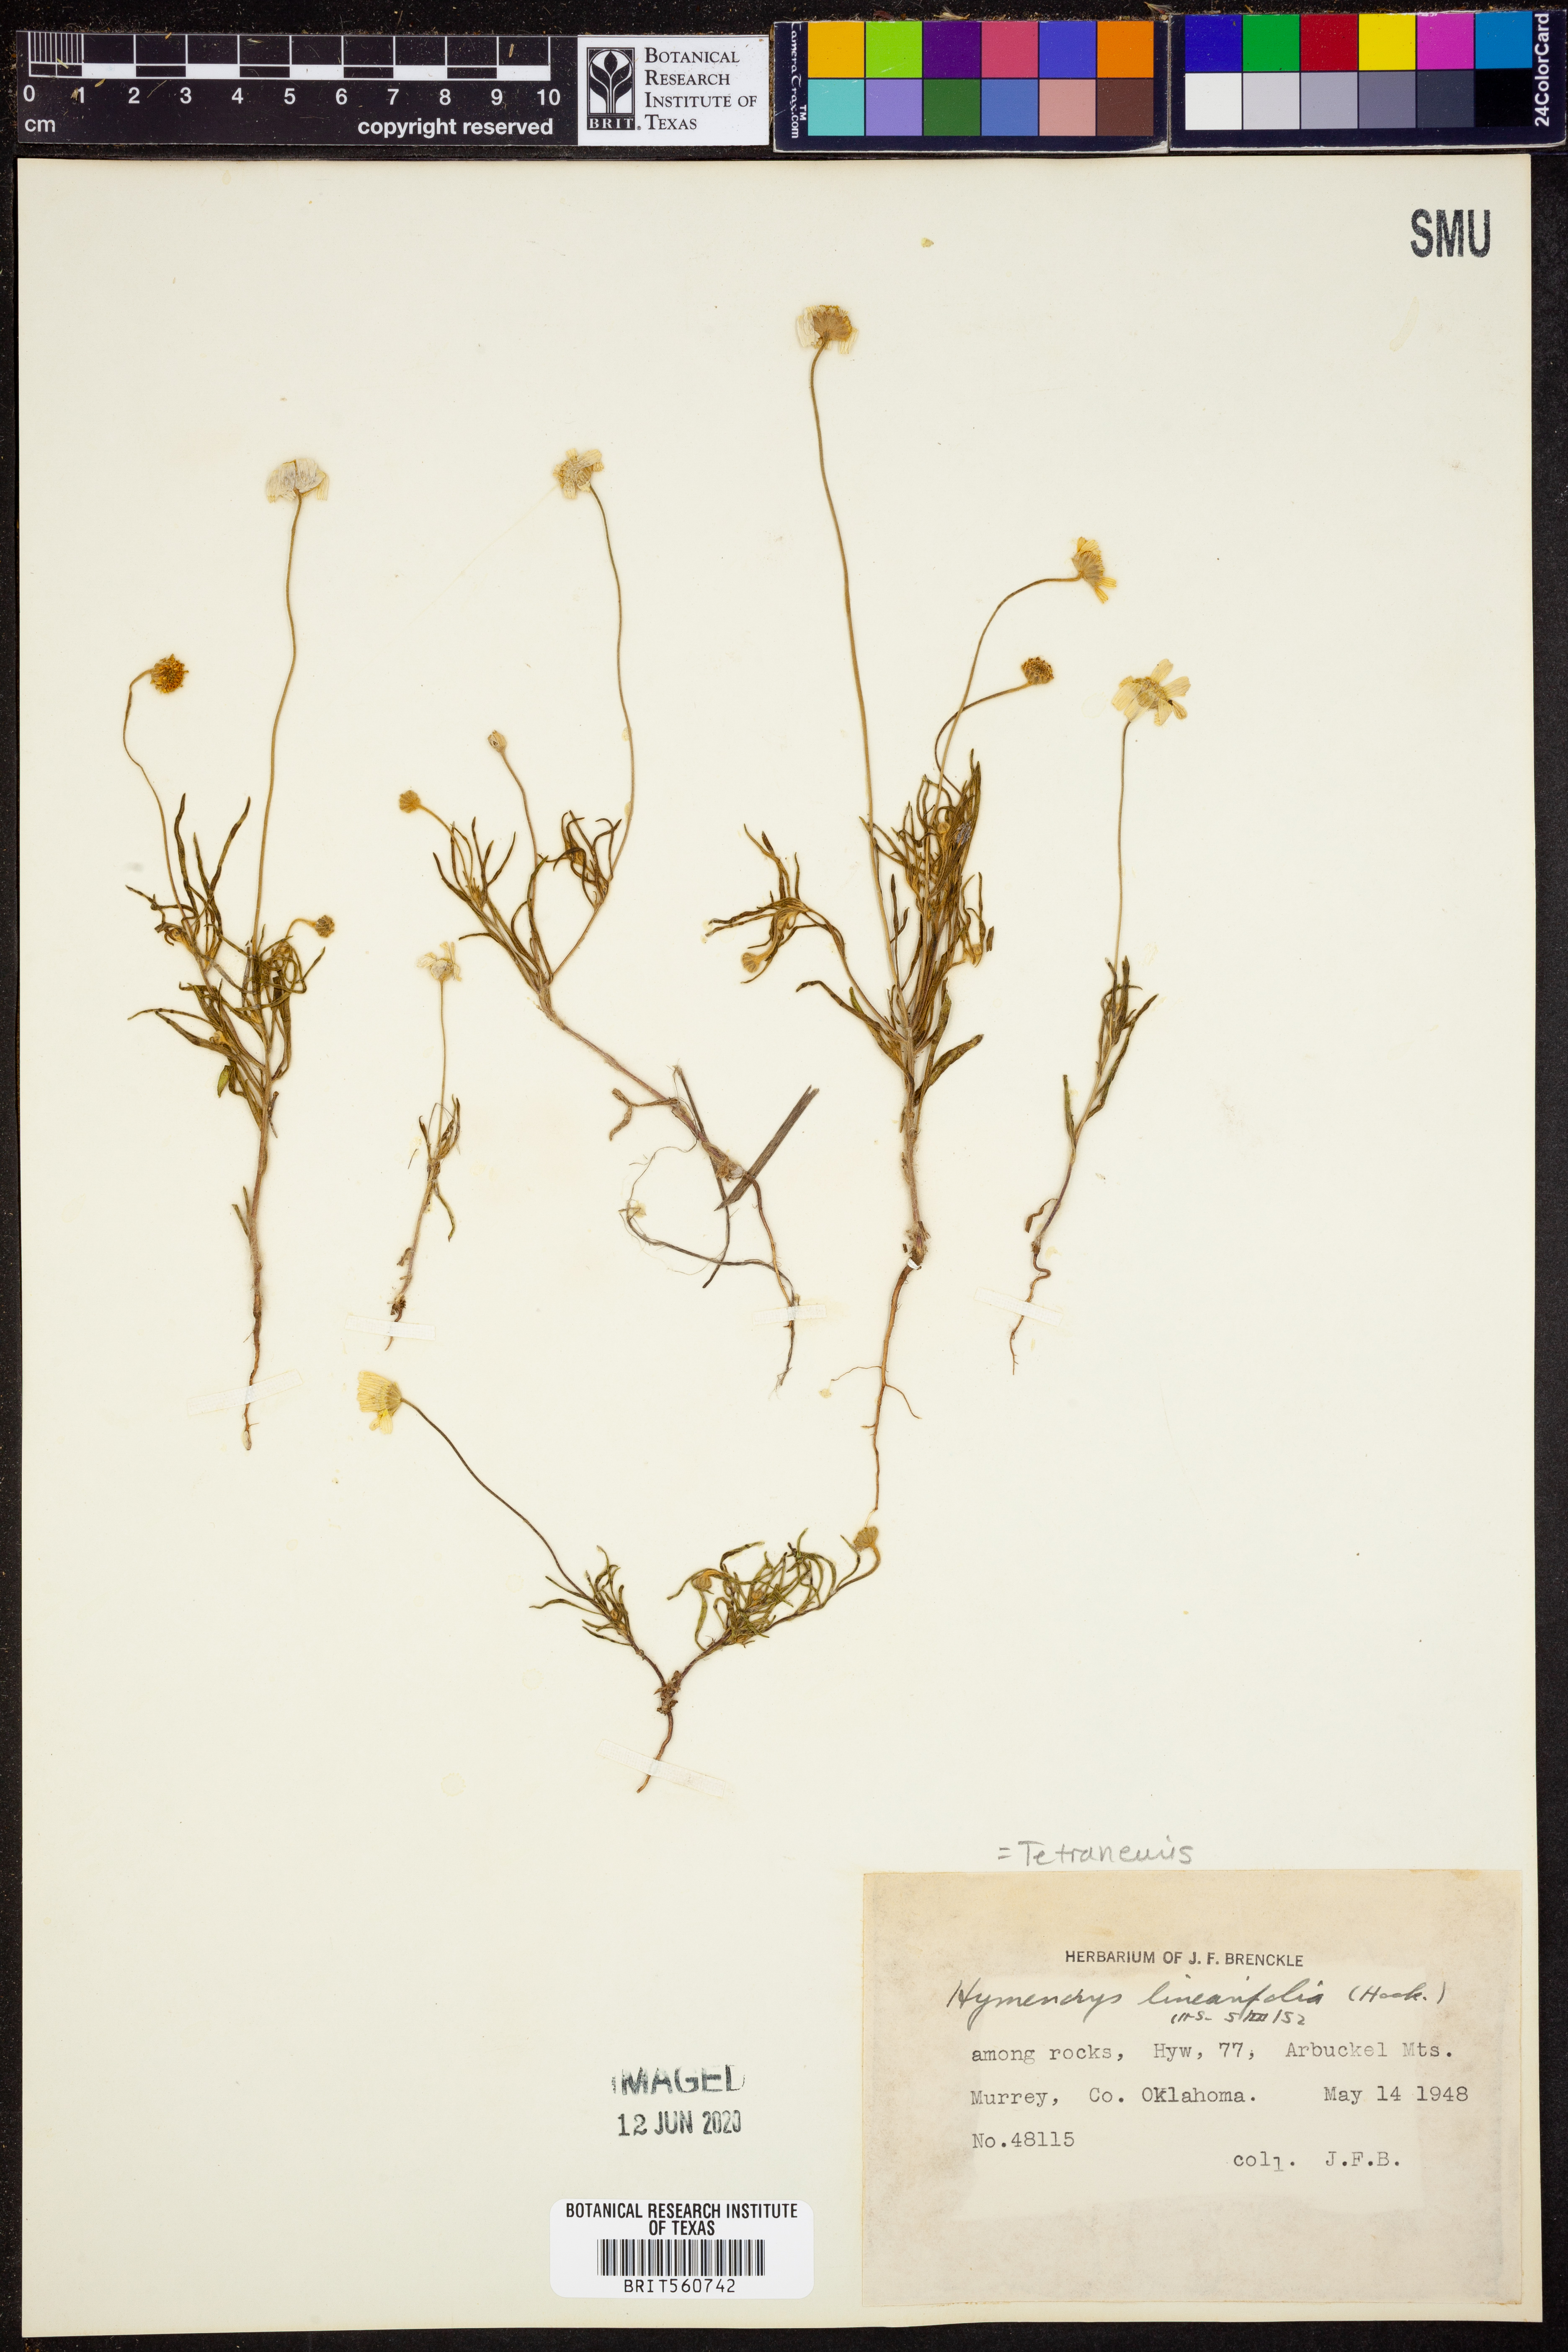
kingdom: Plantae
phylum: Tracheophyta
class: Magnoliopsida
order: Asterales
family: Asteraceae
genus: Tetraneuris
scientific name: Tetraneuris linearifolia
